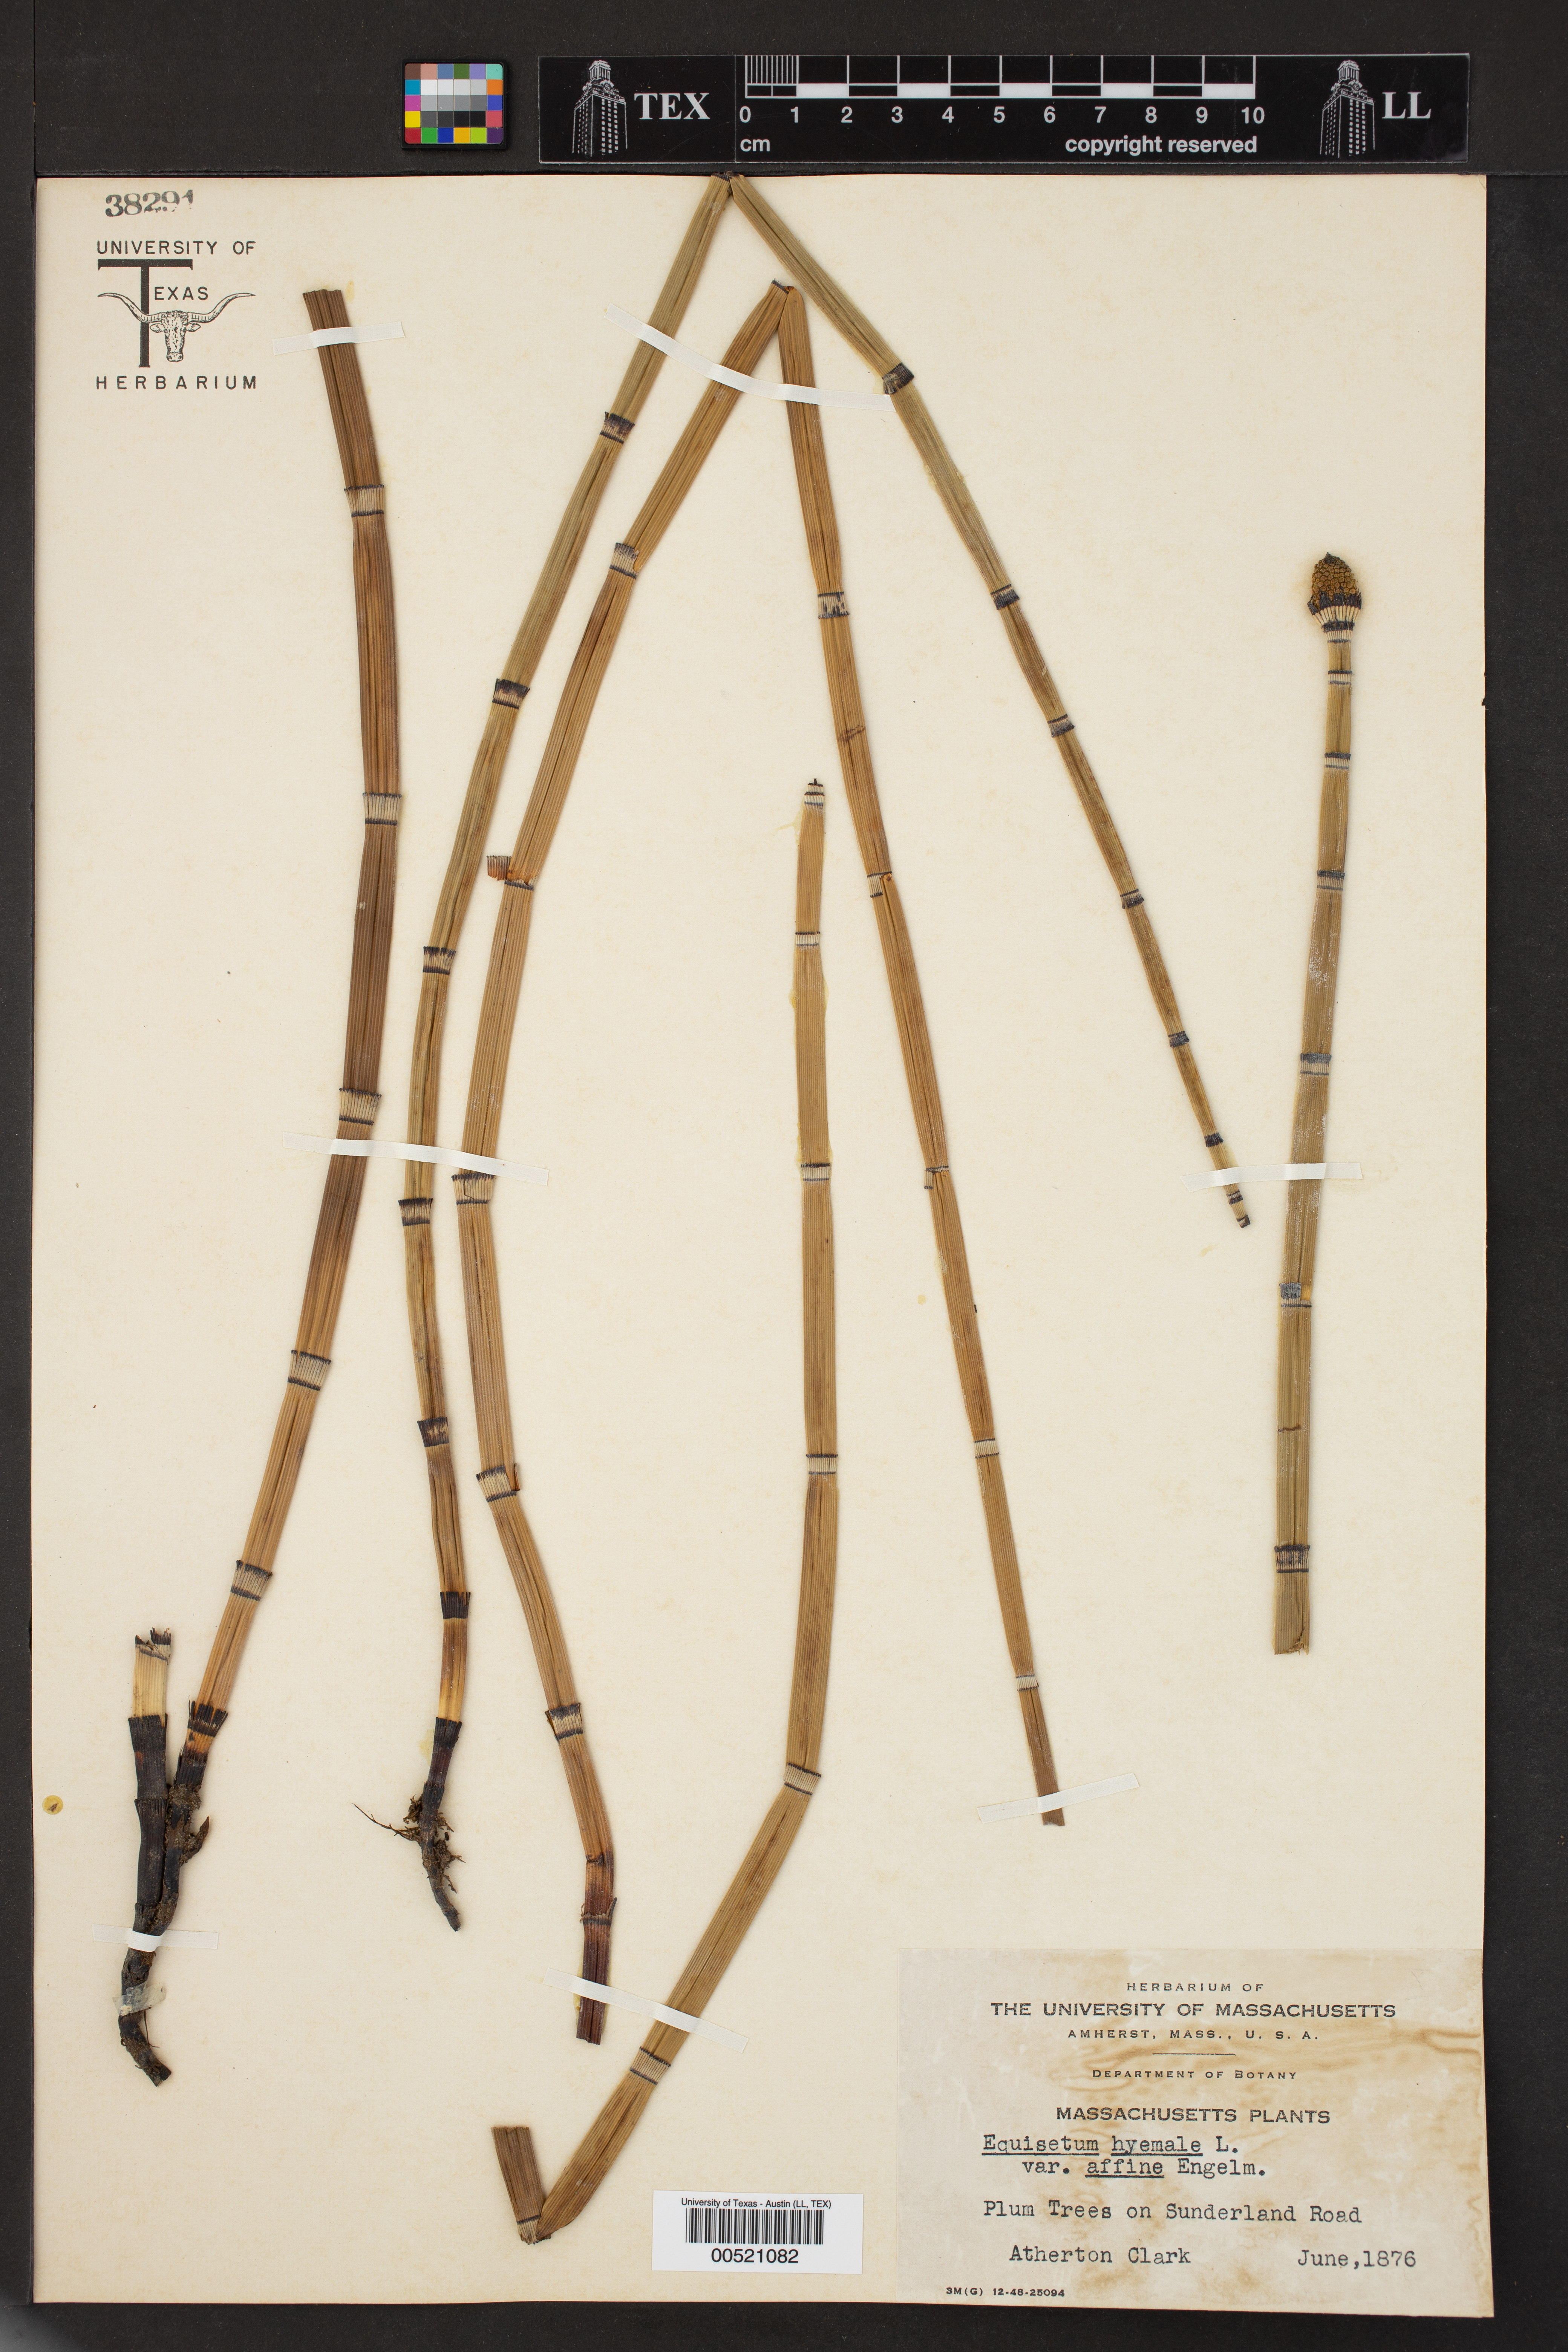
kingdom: Plantae
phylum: Tracheophyta
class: Polypodiopsida
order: Equisetales
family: Equisetaceae
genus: Equisetum
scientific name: Equisetum praealtum
